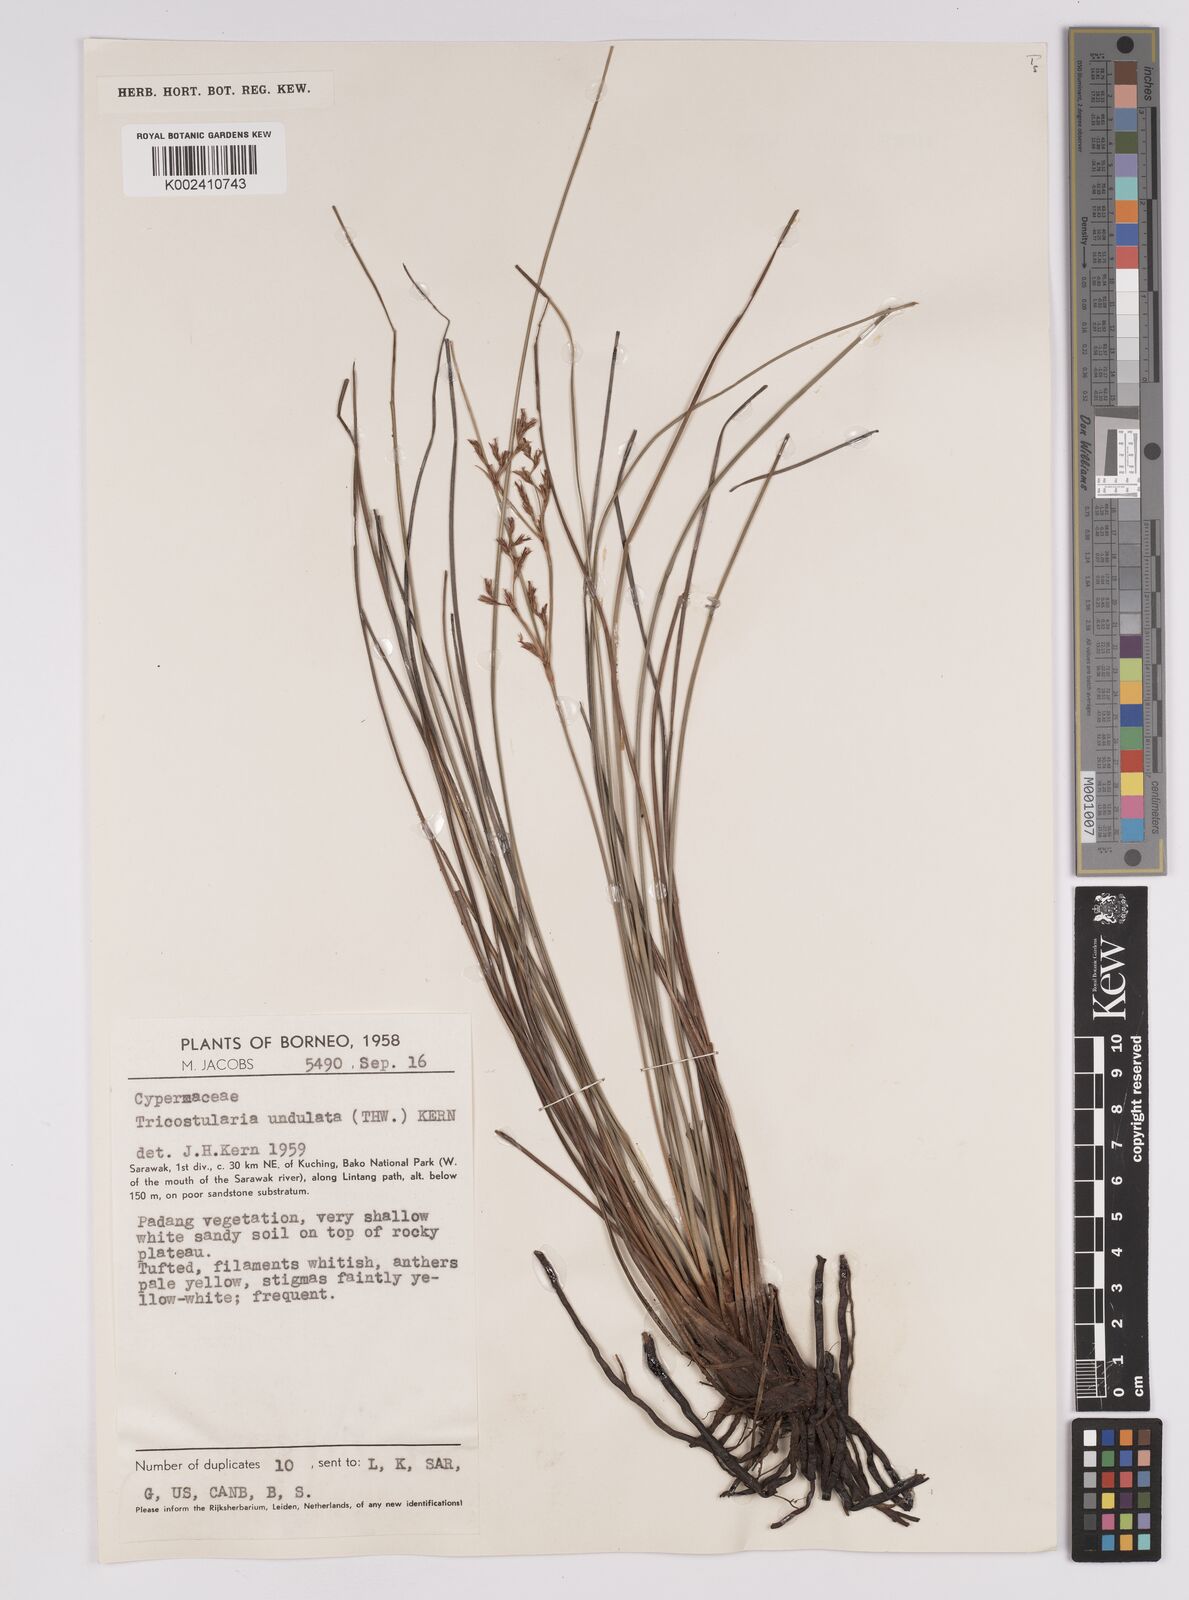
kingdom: Plantae
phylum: Tracheophyta
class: Liliopsida
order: Poales
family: Cyperaceae
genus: Anthelepis
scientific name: Anthelepis undulata
